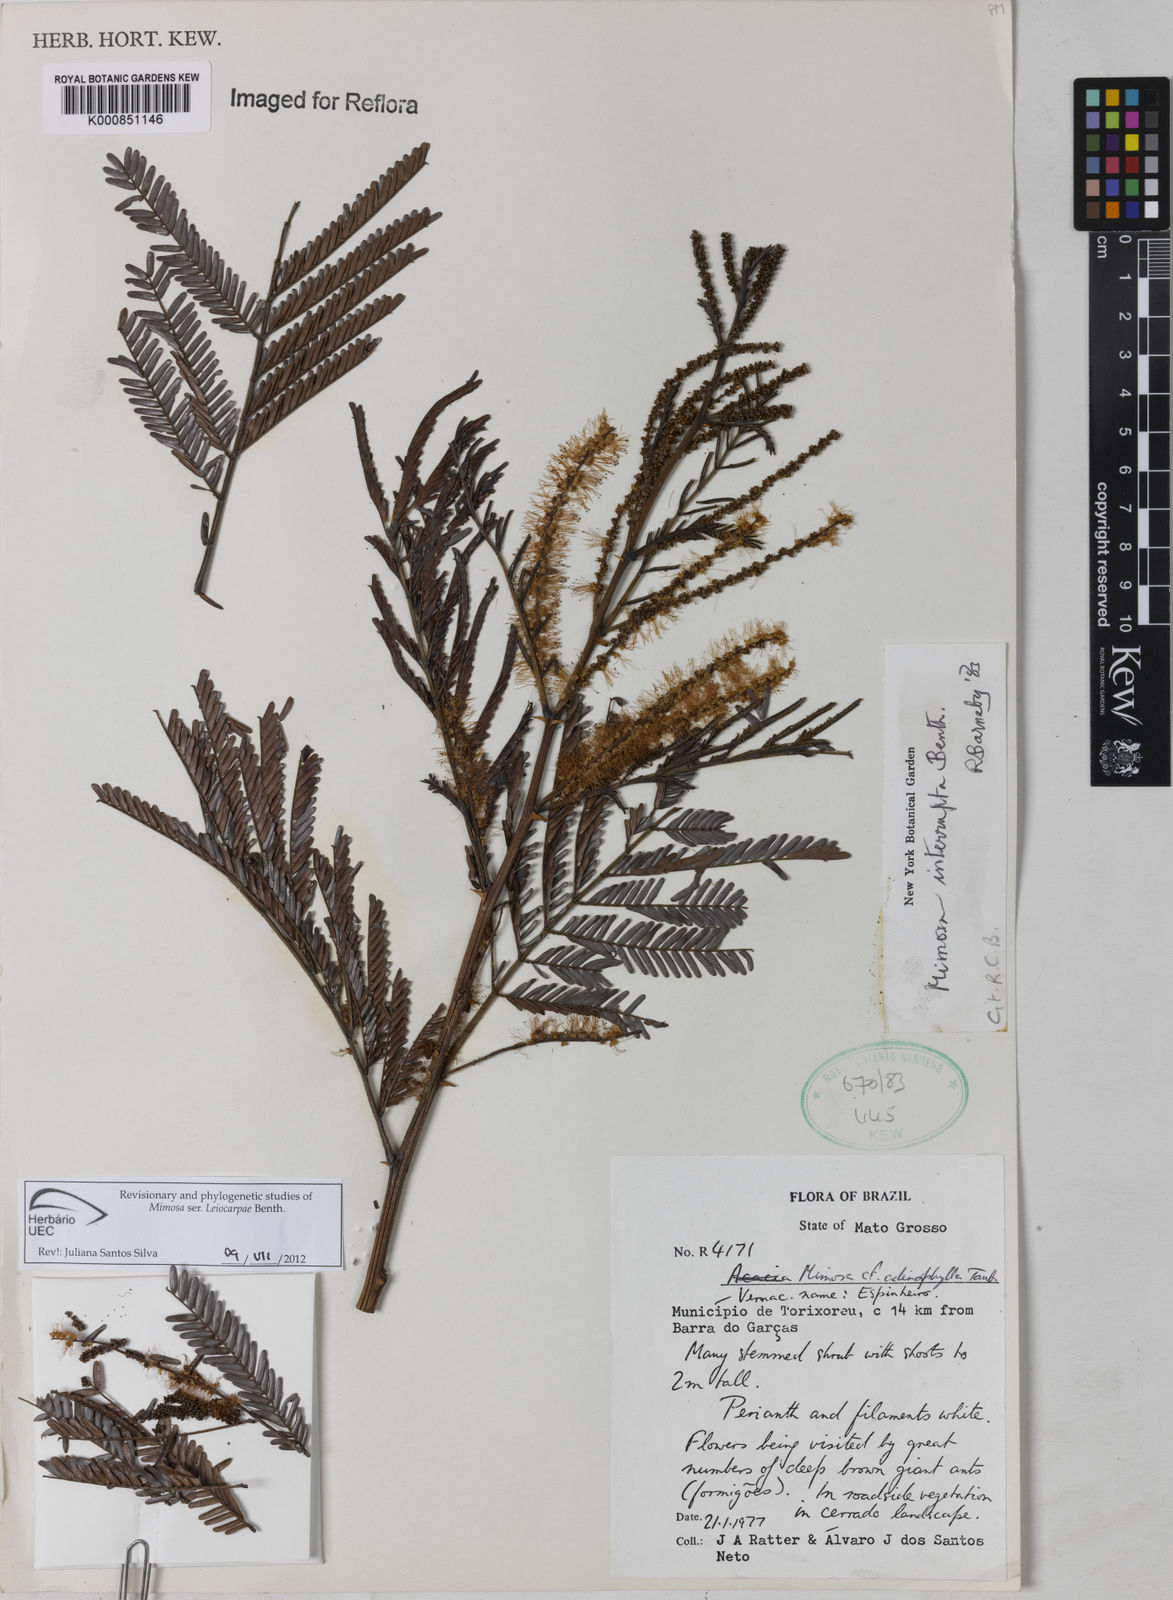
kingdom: Plantae
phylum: Tracheophyta
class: Magnoliopsida
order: Fabales
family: Fabaceae
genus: Mimosa
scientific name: Mimosa interrupta
